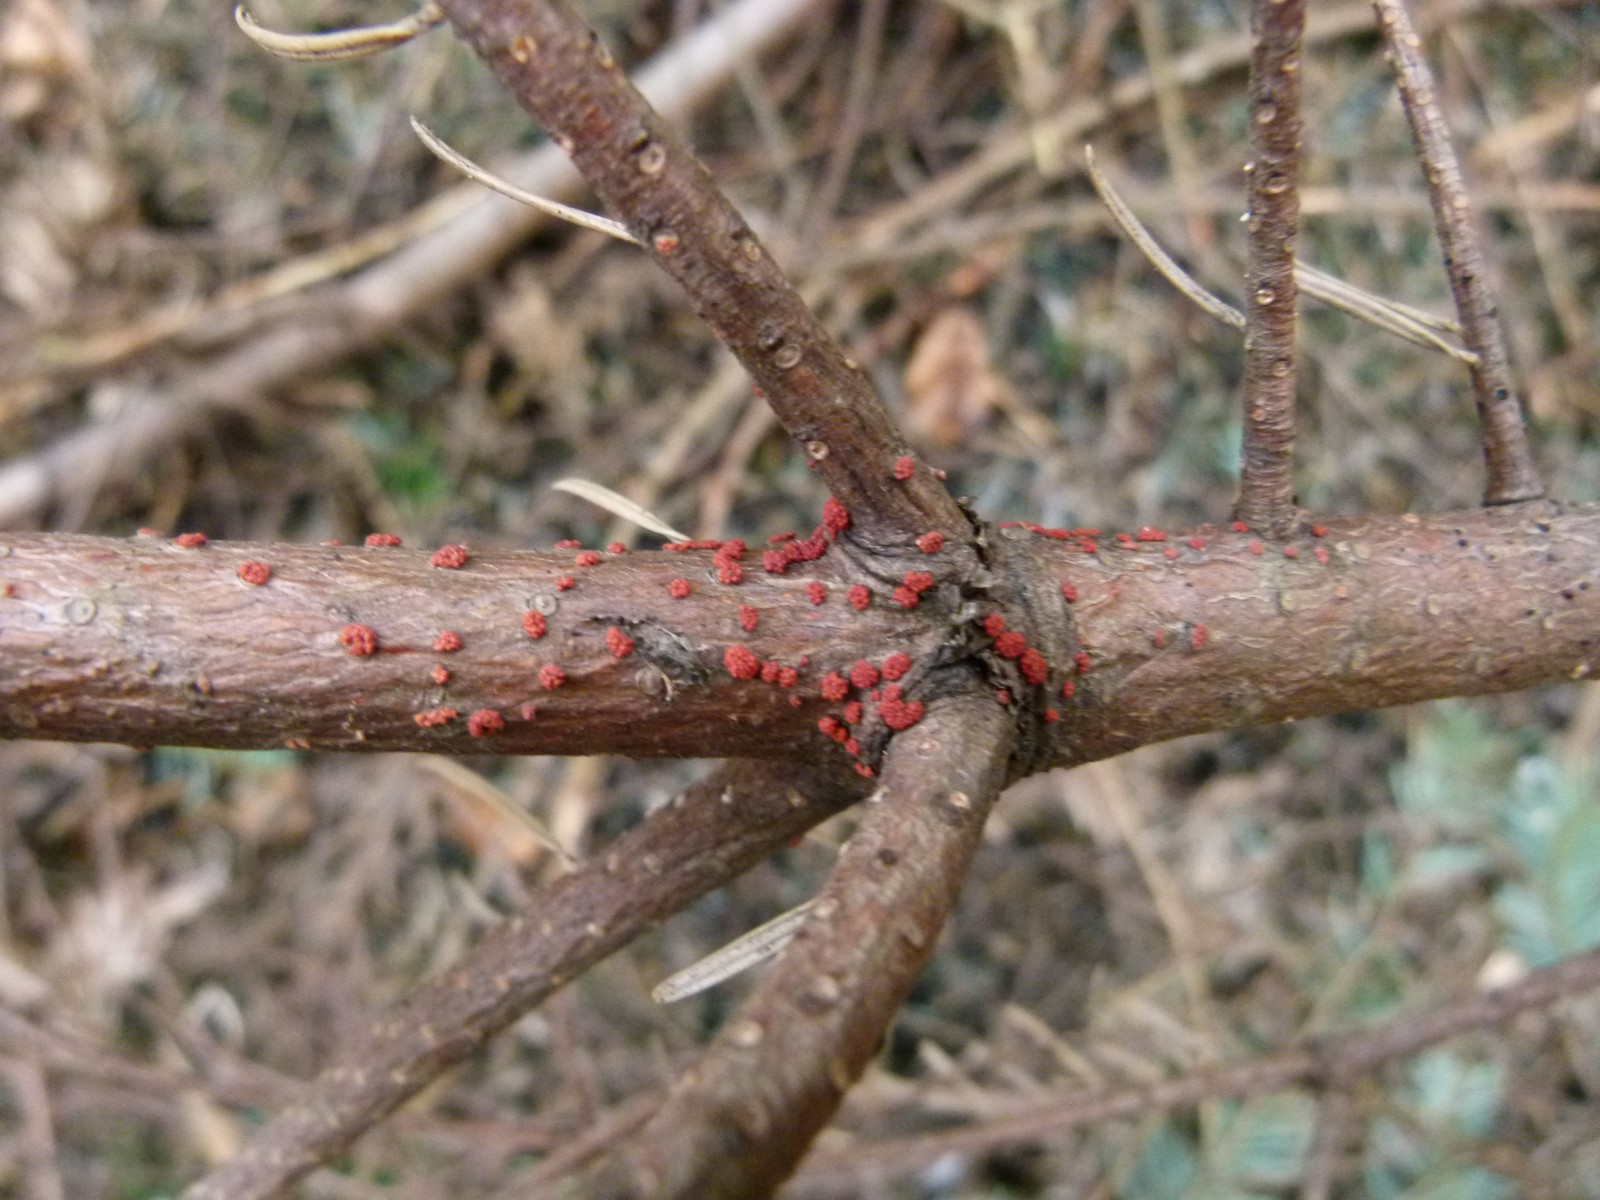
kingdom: Fungi
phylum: Ascomycota
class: Sordariomycetes
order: Hypocreales
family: Nectriaceae
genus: Neonectria
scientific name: Neonectria neomacrospora
